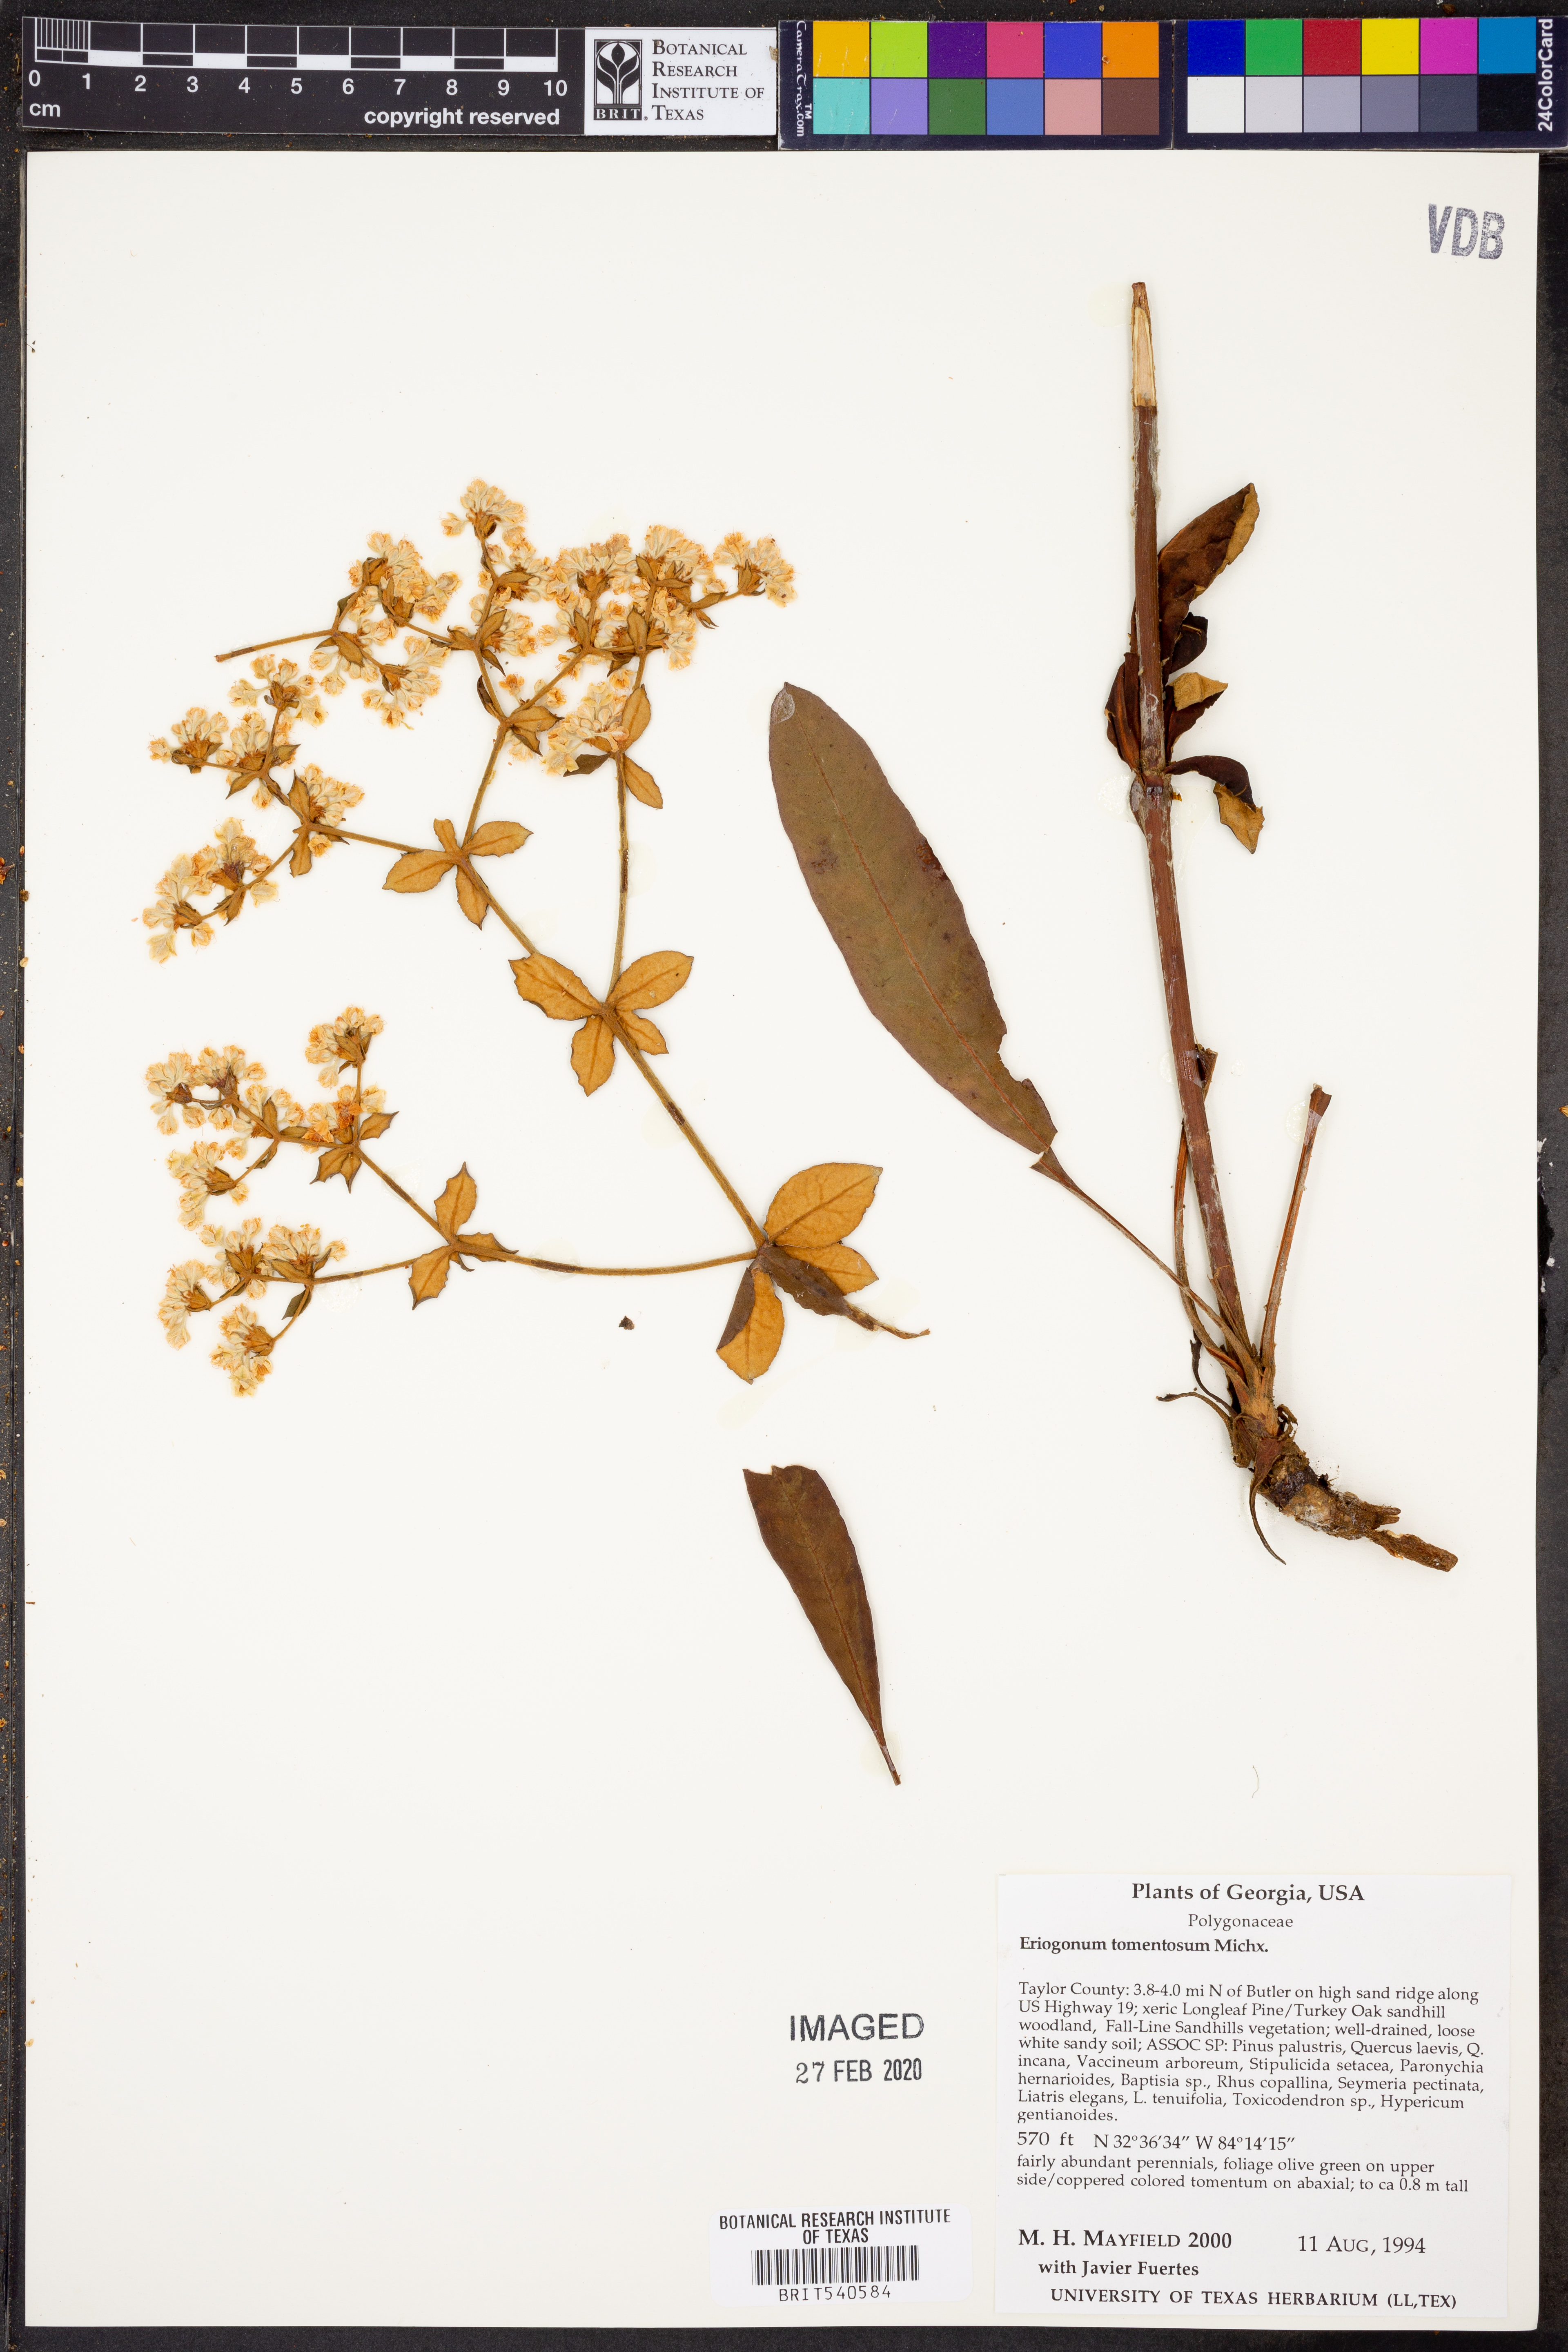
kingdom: Plantae
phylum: Tracheophyta
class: Magnoliopsida
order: Caryophyllales
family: Polygonaceae
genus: Eriogonum
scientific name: Eriogonum tomentosum
